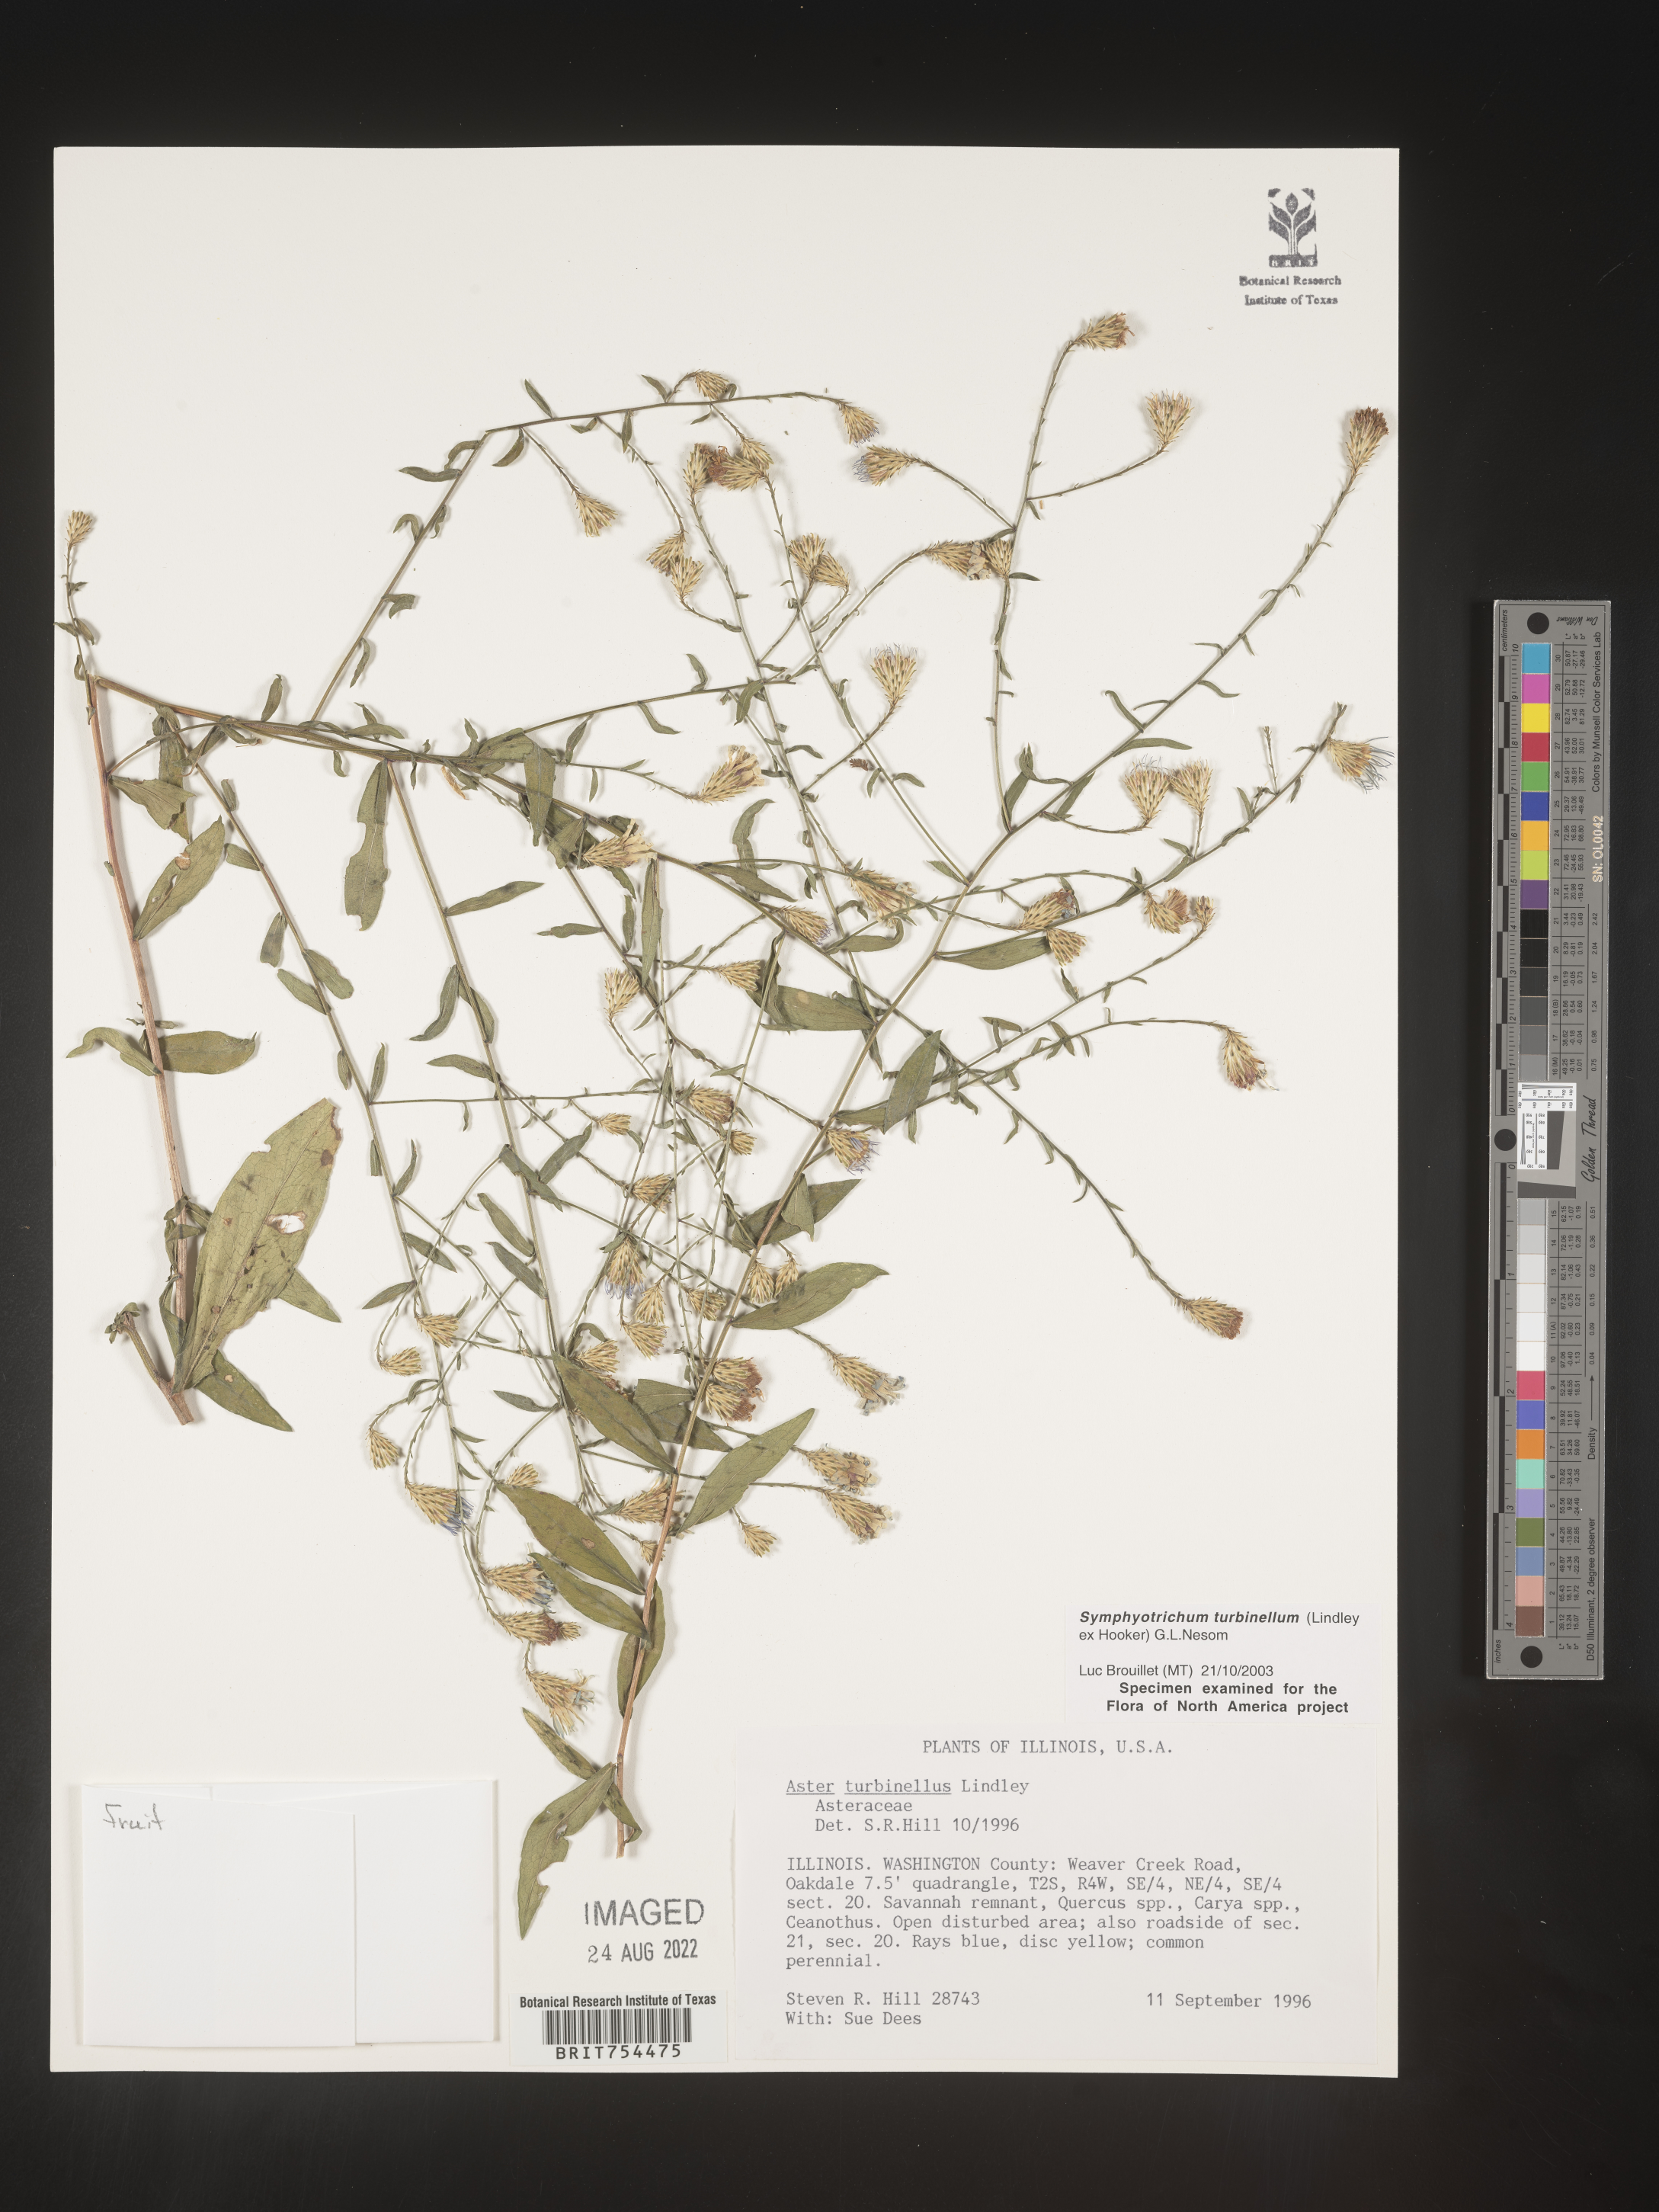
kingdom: Plantae
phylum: Tracheophyta
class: Magnoliopsida
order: Asterales
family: Asteraceae
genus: Symphyotrichum
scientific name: Symphyotrichum turbinellum
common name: Prairie aster
